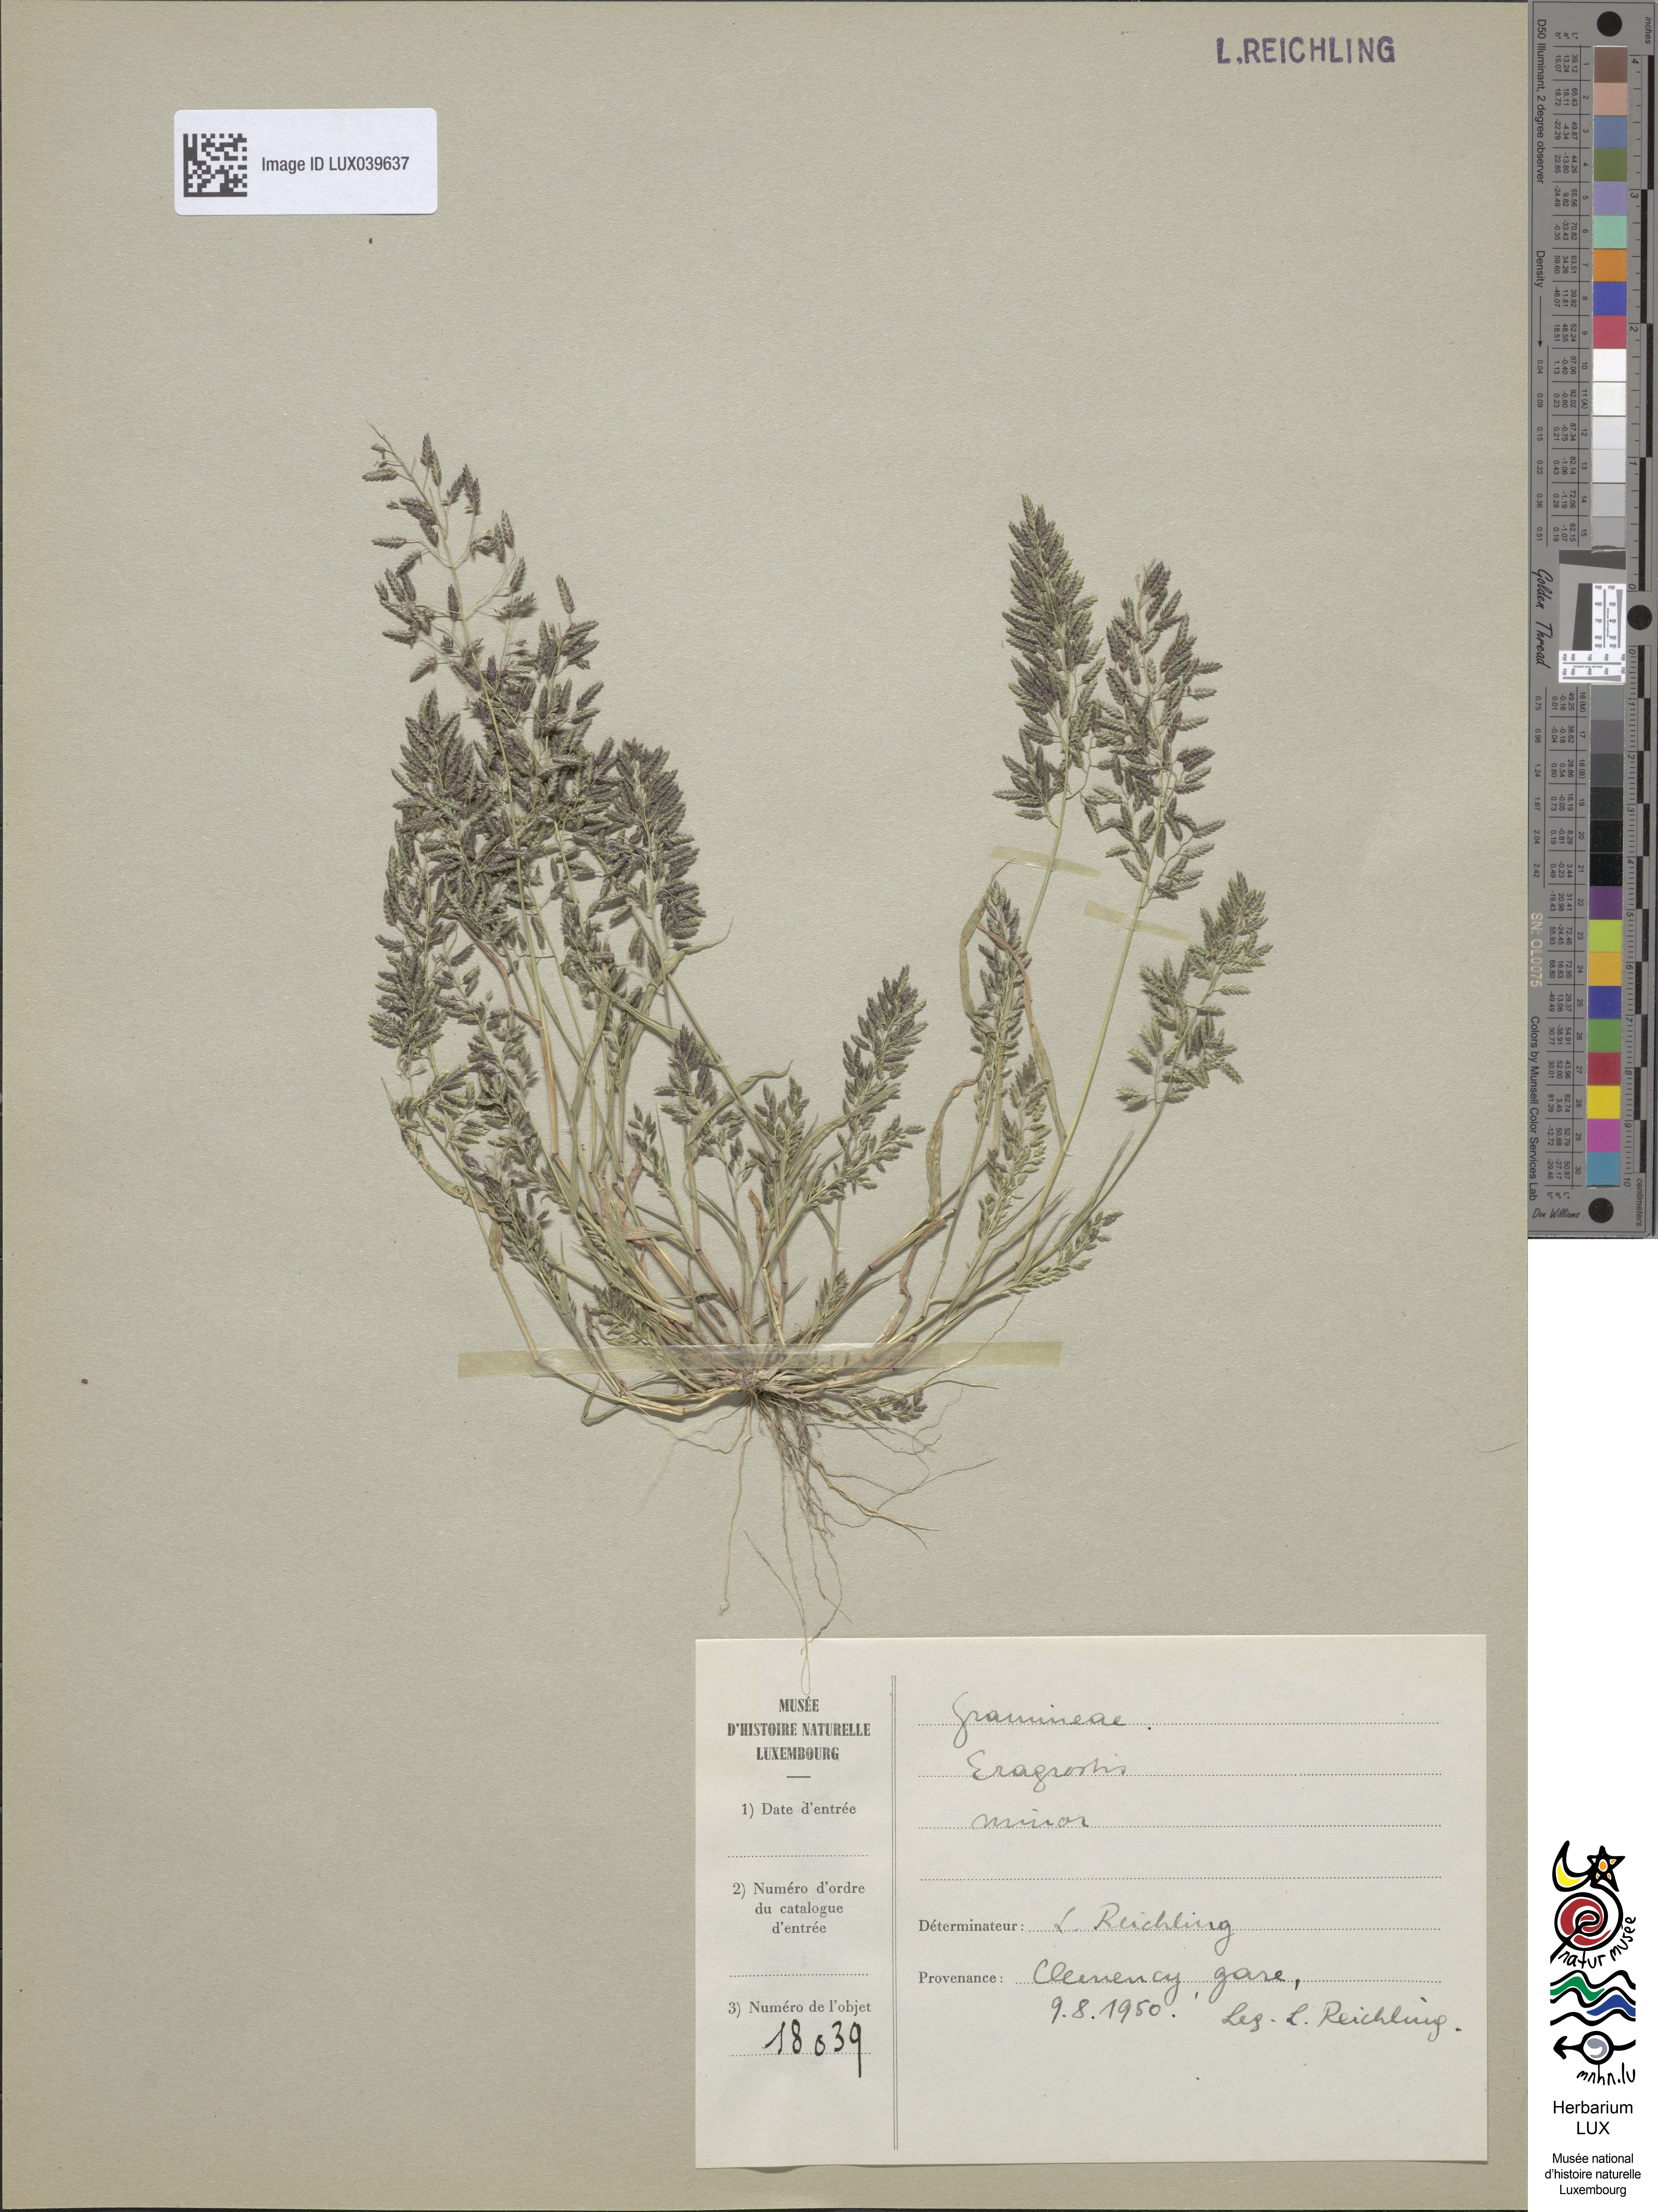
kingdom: Plantae
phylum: Tracheophyta
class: Liliopsida
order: Poales
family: Poaceae
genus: Eragrostis
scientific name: Eragrostis minor
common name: Small love-grass
